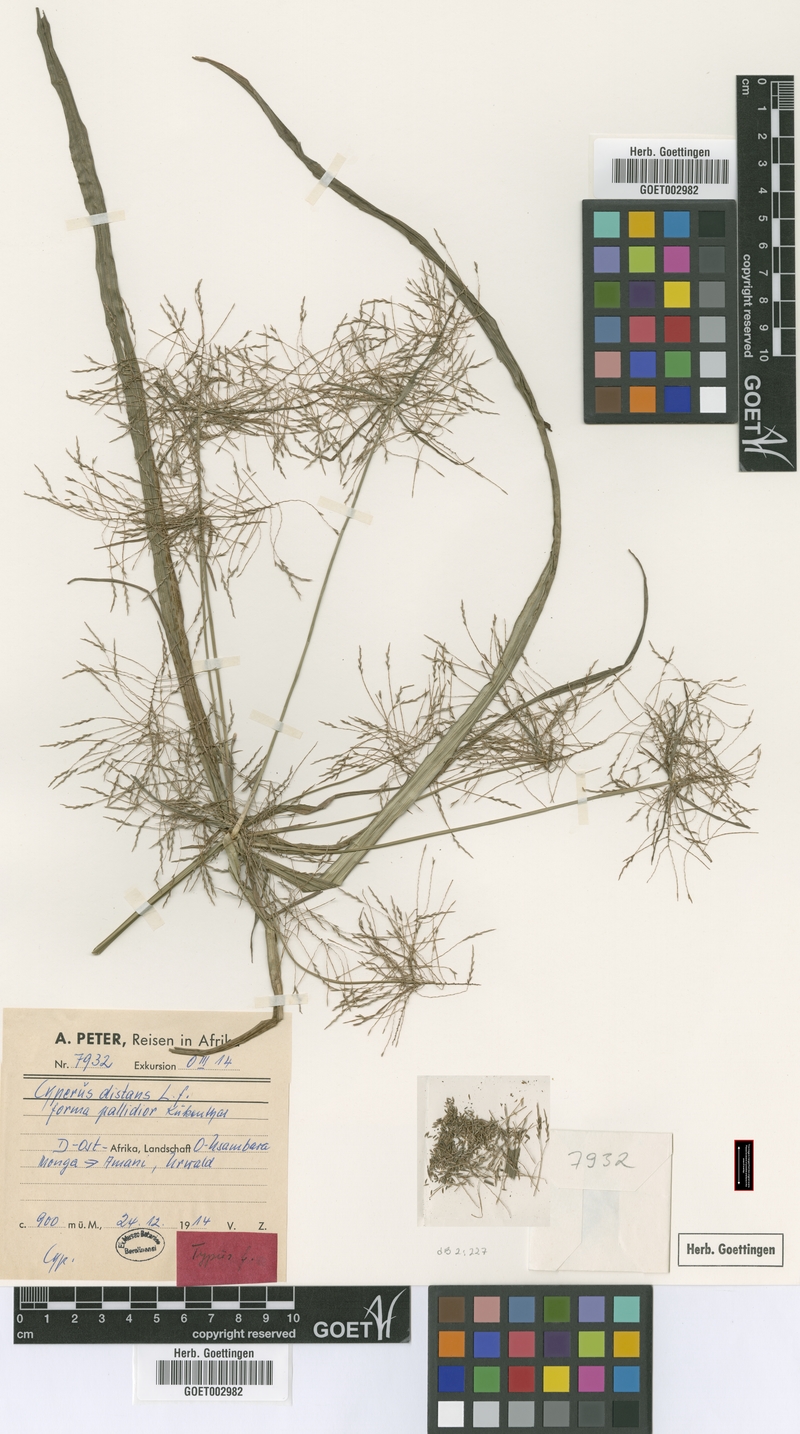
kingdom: Plantae
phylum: Tracheophyta
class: Liliopsida
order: Poales
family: Cyperaceae
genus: Cyperus
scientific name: Cyperus distans
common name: Slender cyperus
